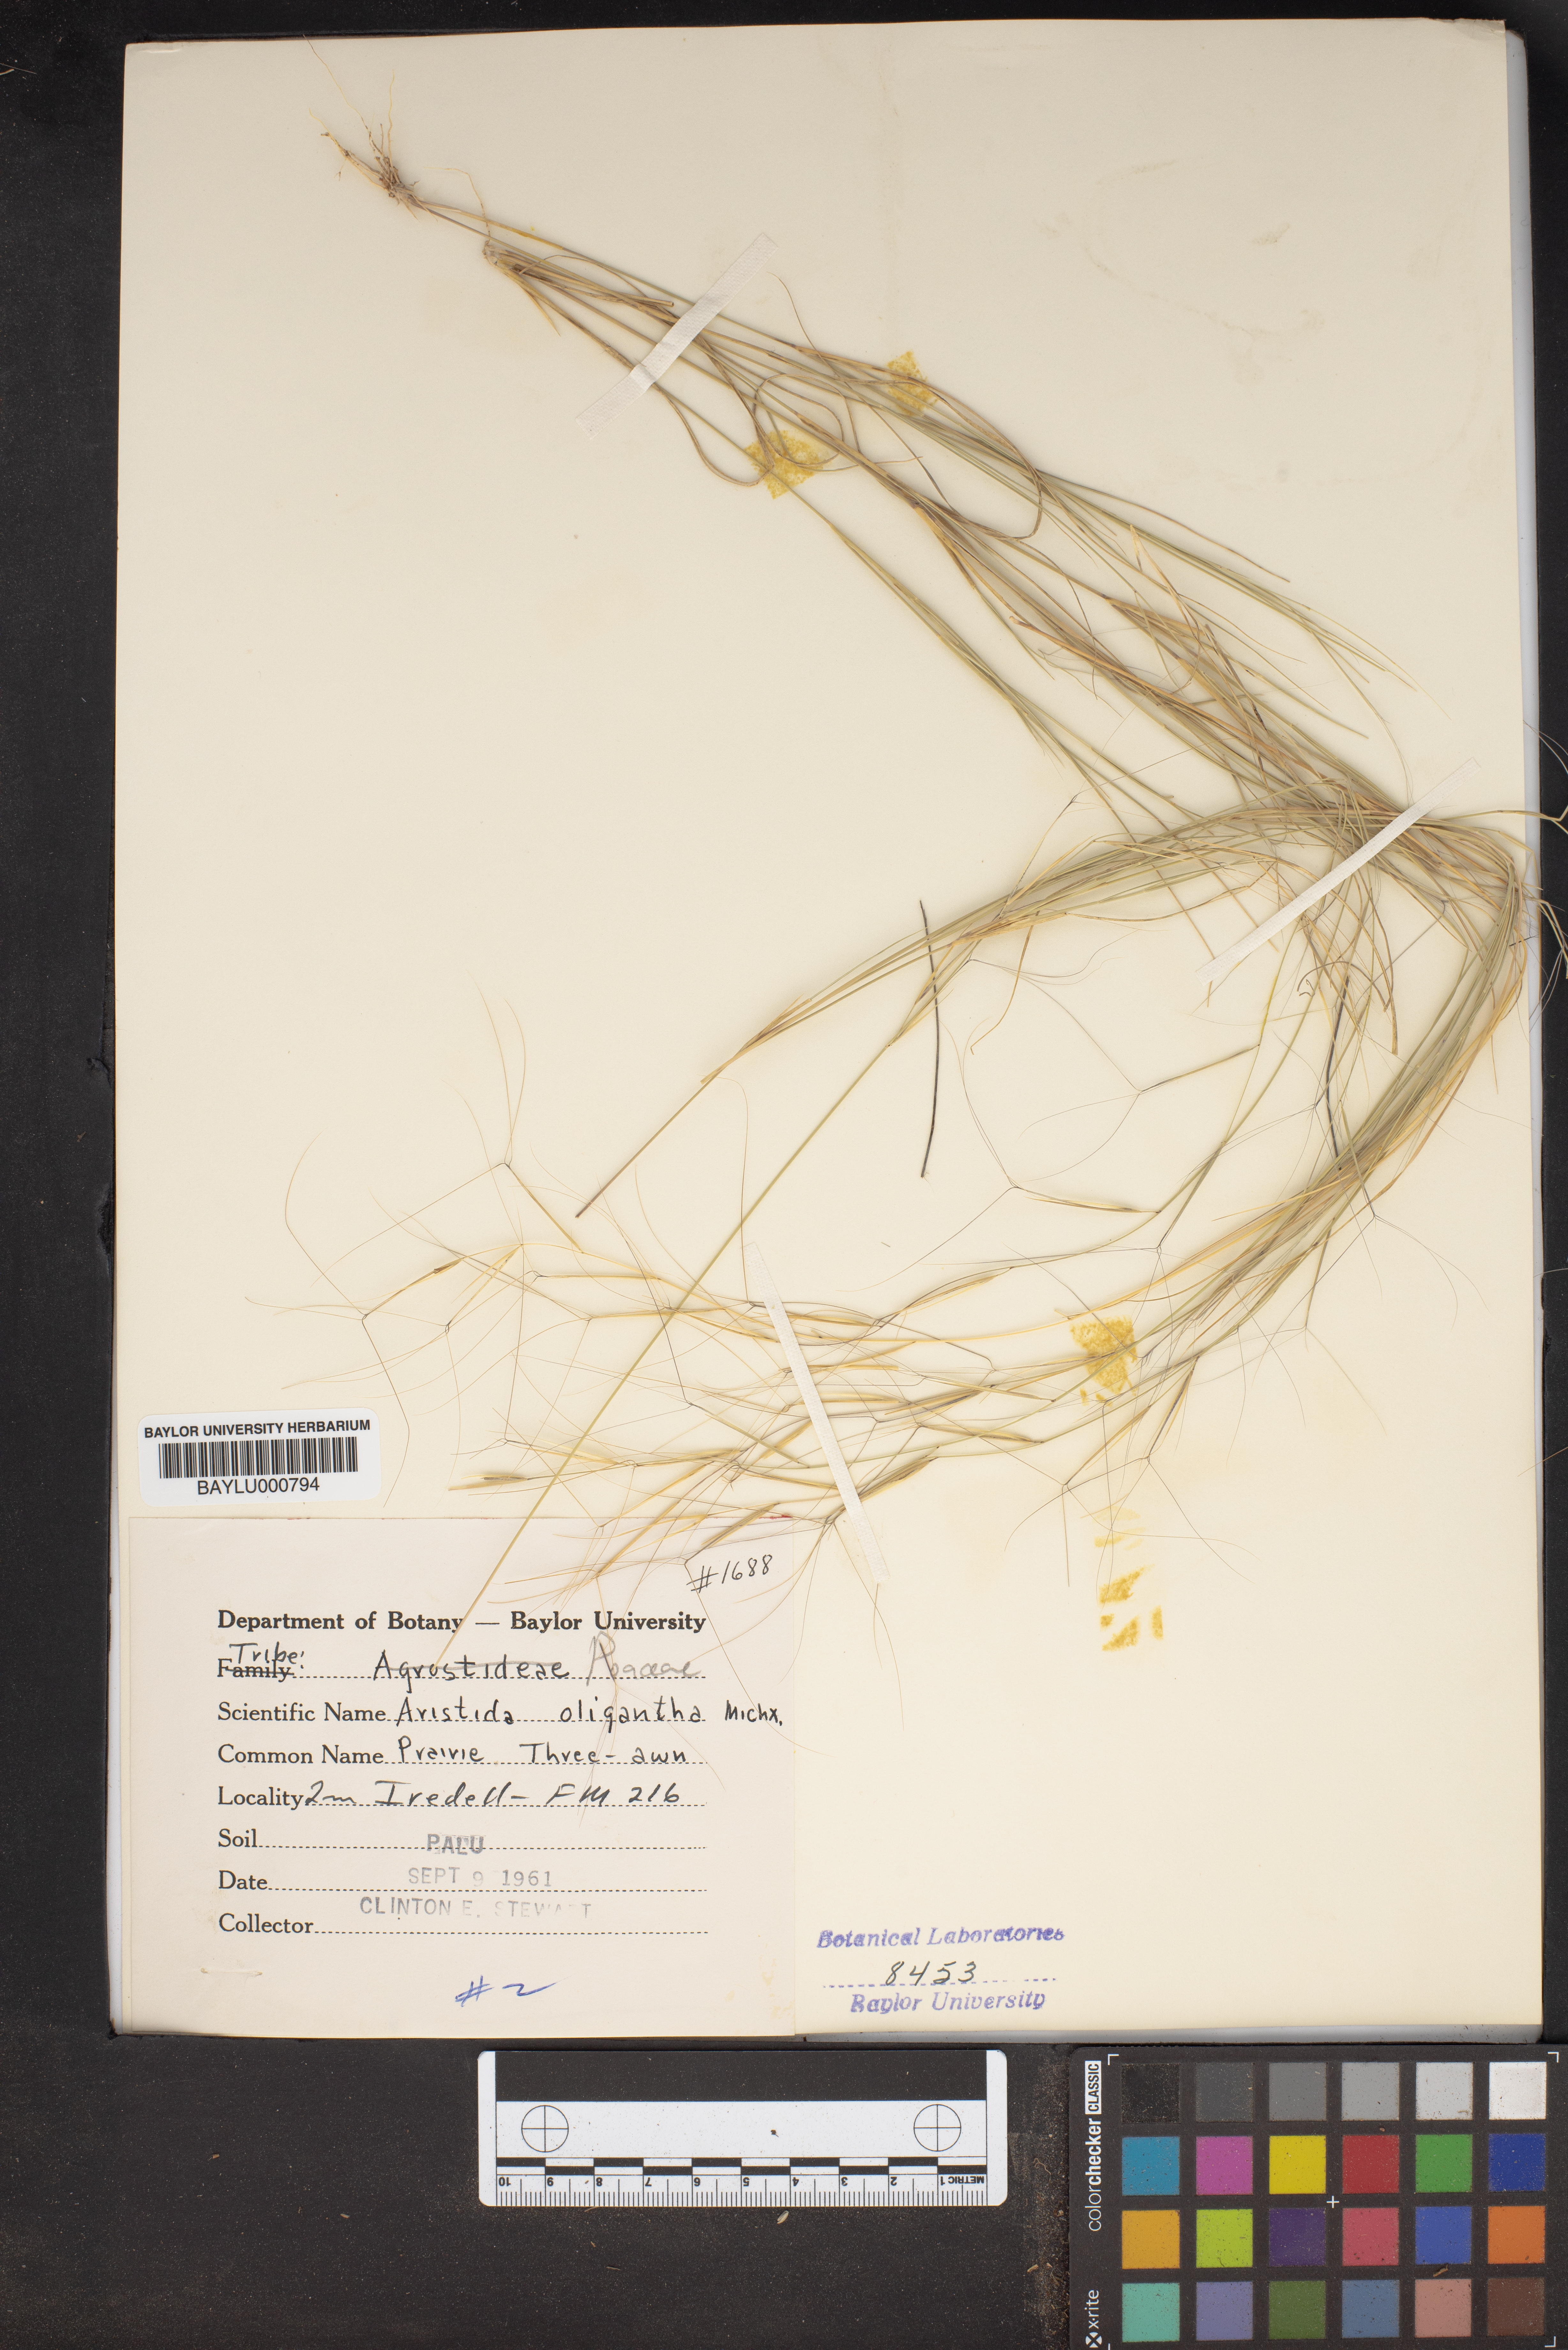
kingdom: Plantae
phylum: Tracheophyta
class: Liliopsida
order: Poales
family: Poaceae
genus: Aristida
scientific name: Aristida oligantha
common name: Few-flowered aristida
